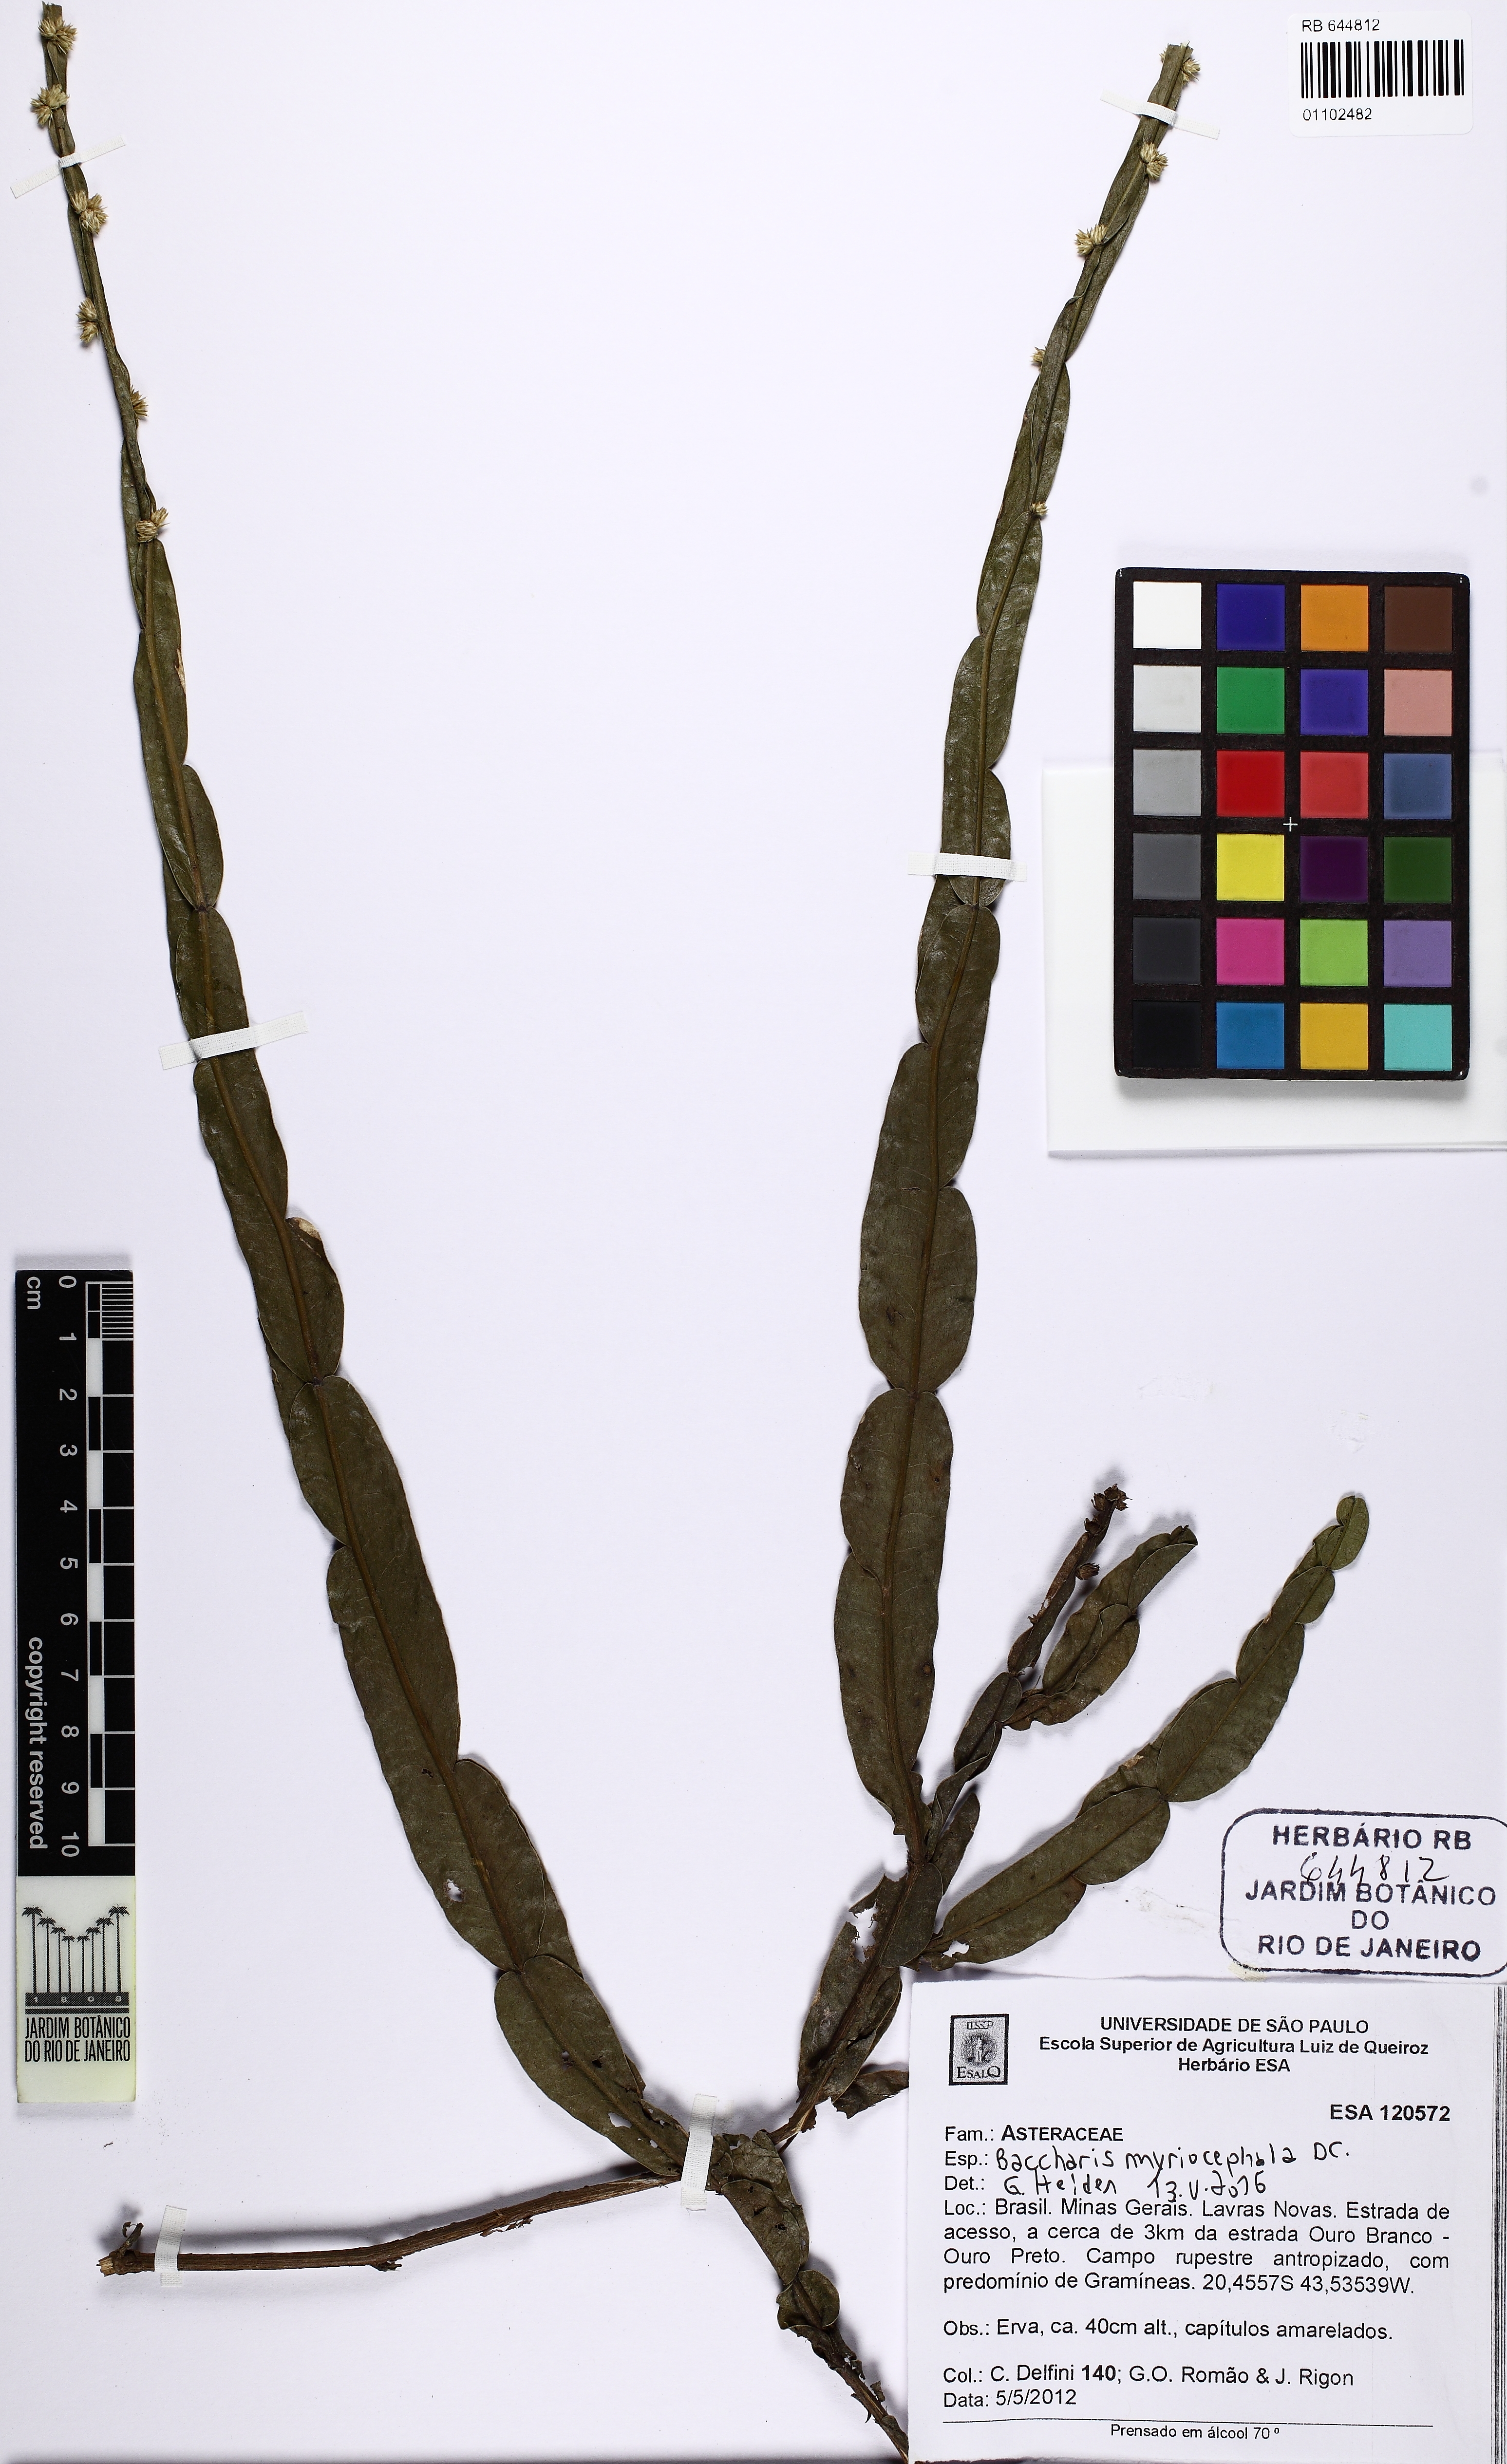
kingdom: Plantae
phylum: Tracheophyta
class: Magnoliopsida
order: Asterales
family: Asteraceae
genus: Baccharis
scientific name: Baccharis myriocephala
